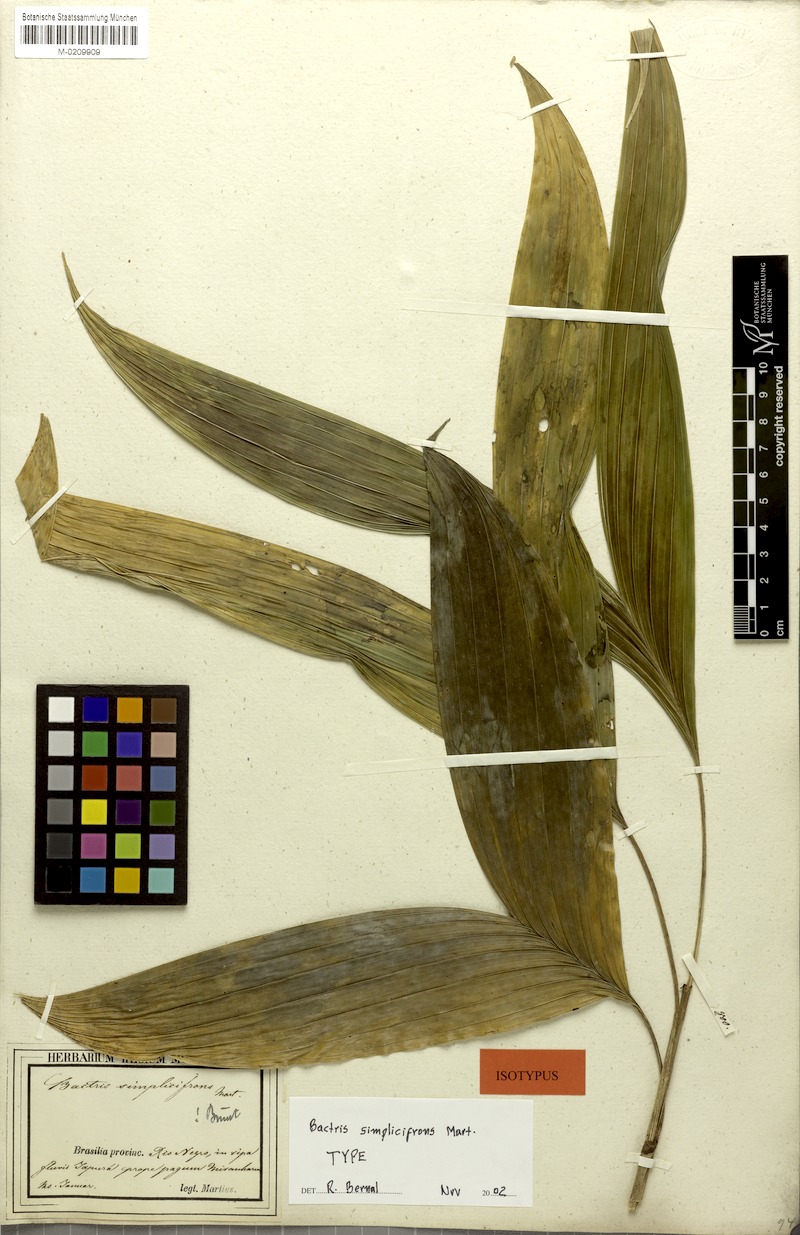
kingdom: Plantae
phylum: Tracheophyta
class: Liliopsida
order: Arecales
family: Arecaceae
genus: Bactris
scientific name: Bactris simplicifrons
